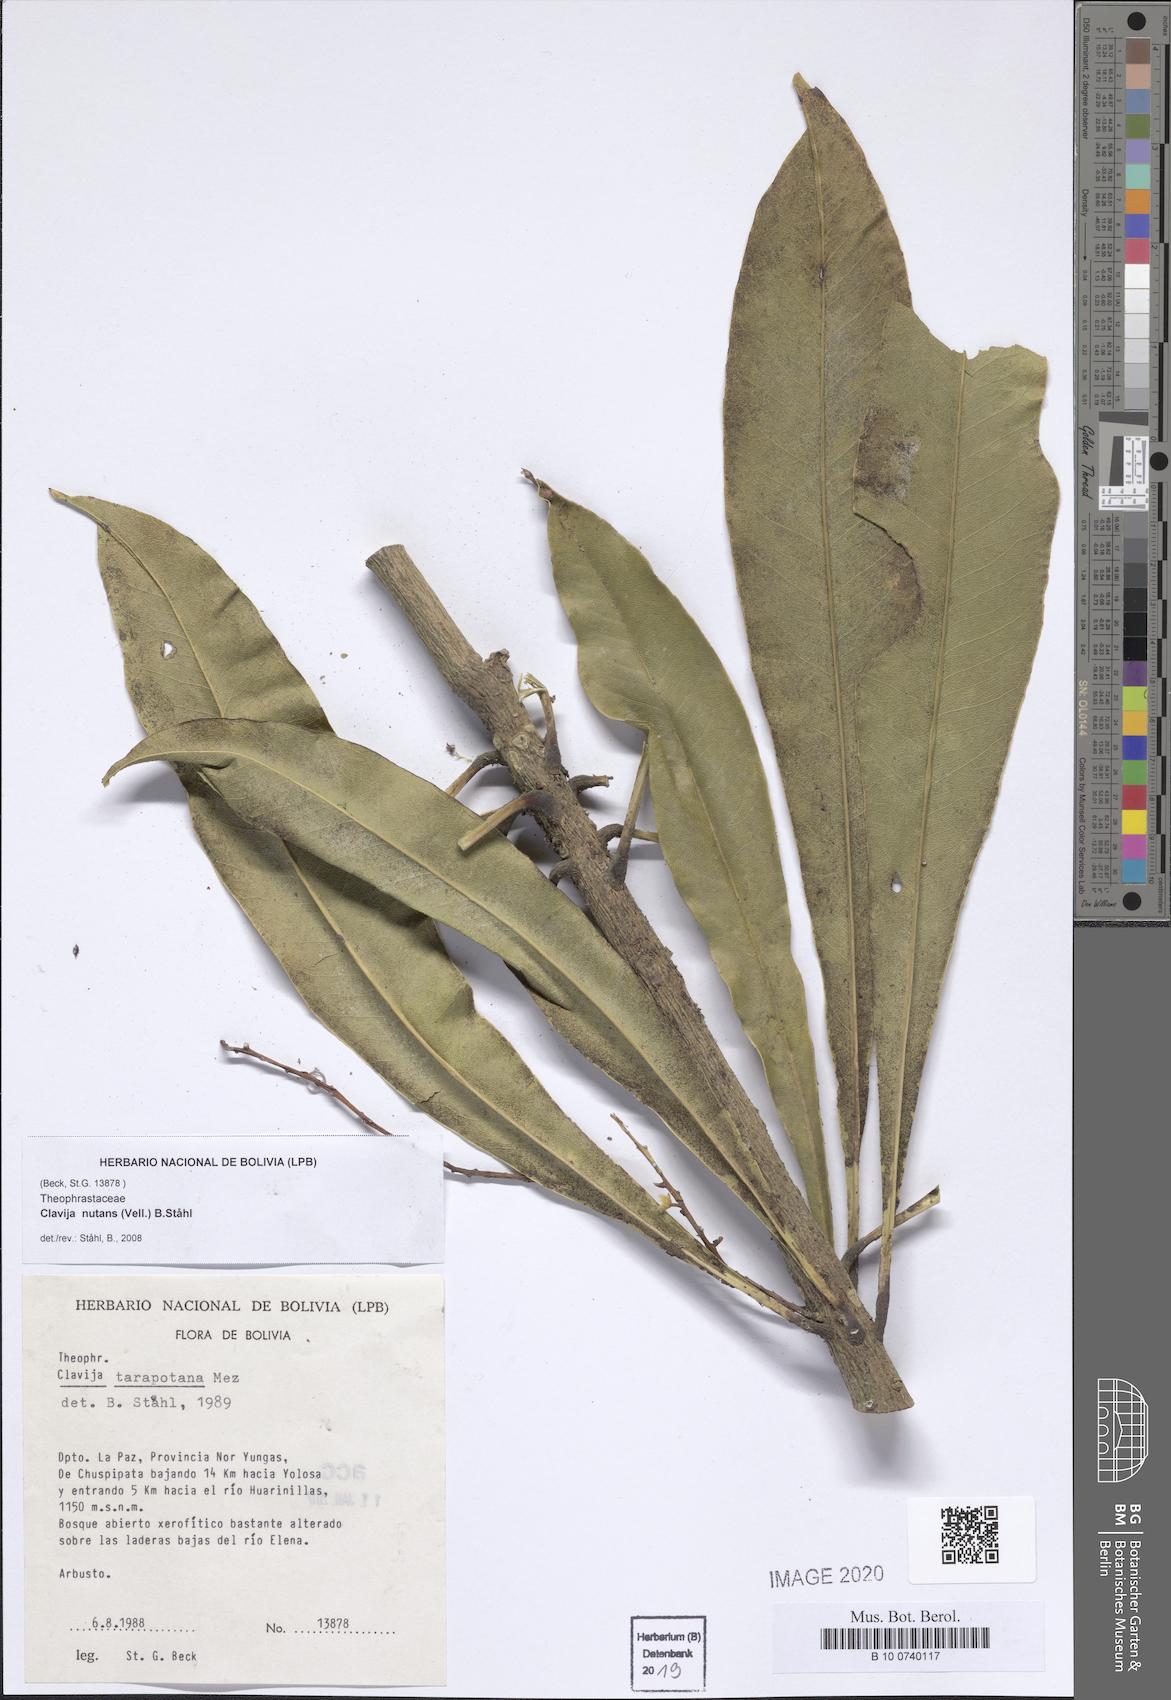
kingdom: Plantae
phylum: Tracheophyta
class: Magnoliopsida
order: Ericales
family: Primulaceae
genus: Clavija
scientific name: Clavija nutans
